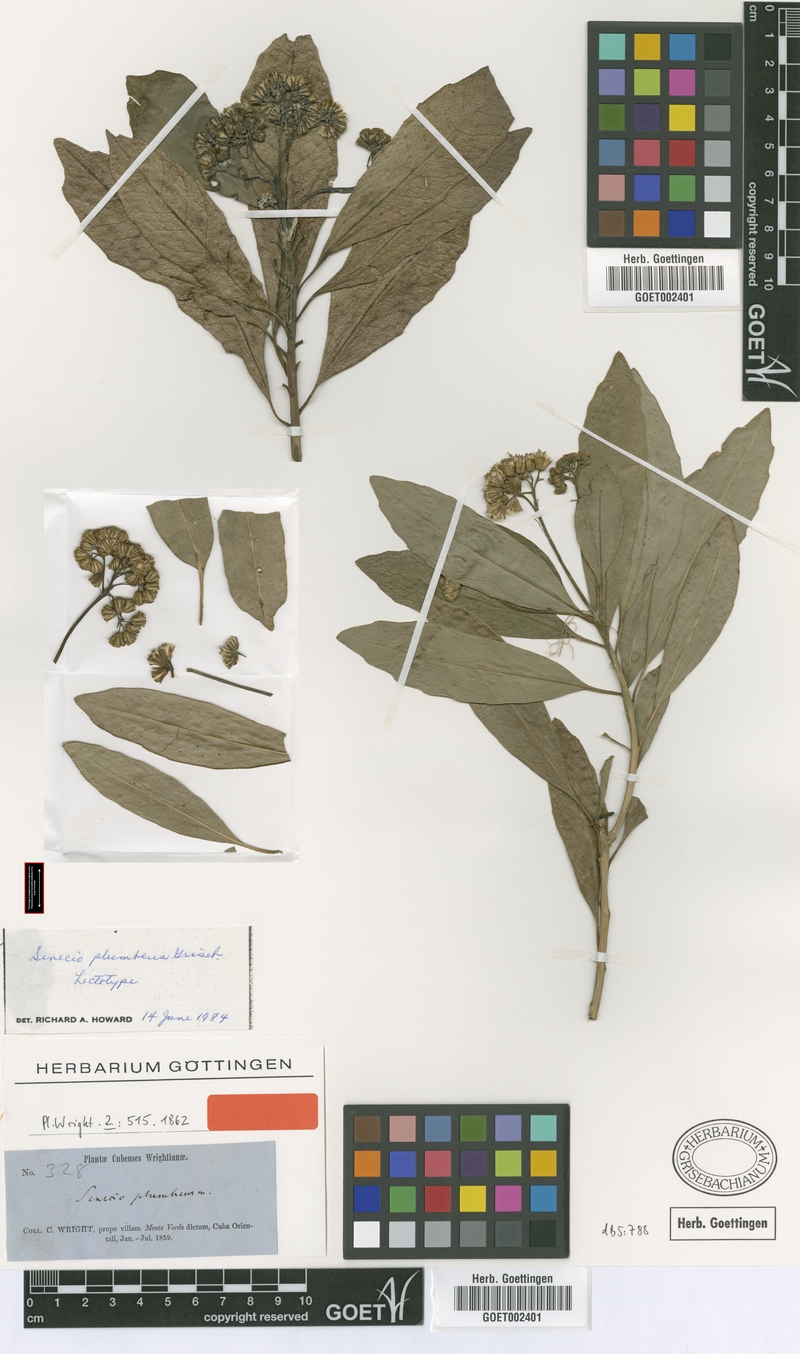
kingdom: Plantae
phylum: Tracheophyta
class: Magnoliopsida
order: Asterales
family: Asteraceae
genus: Lundinia
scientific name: Lundinia plumbea
